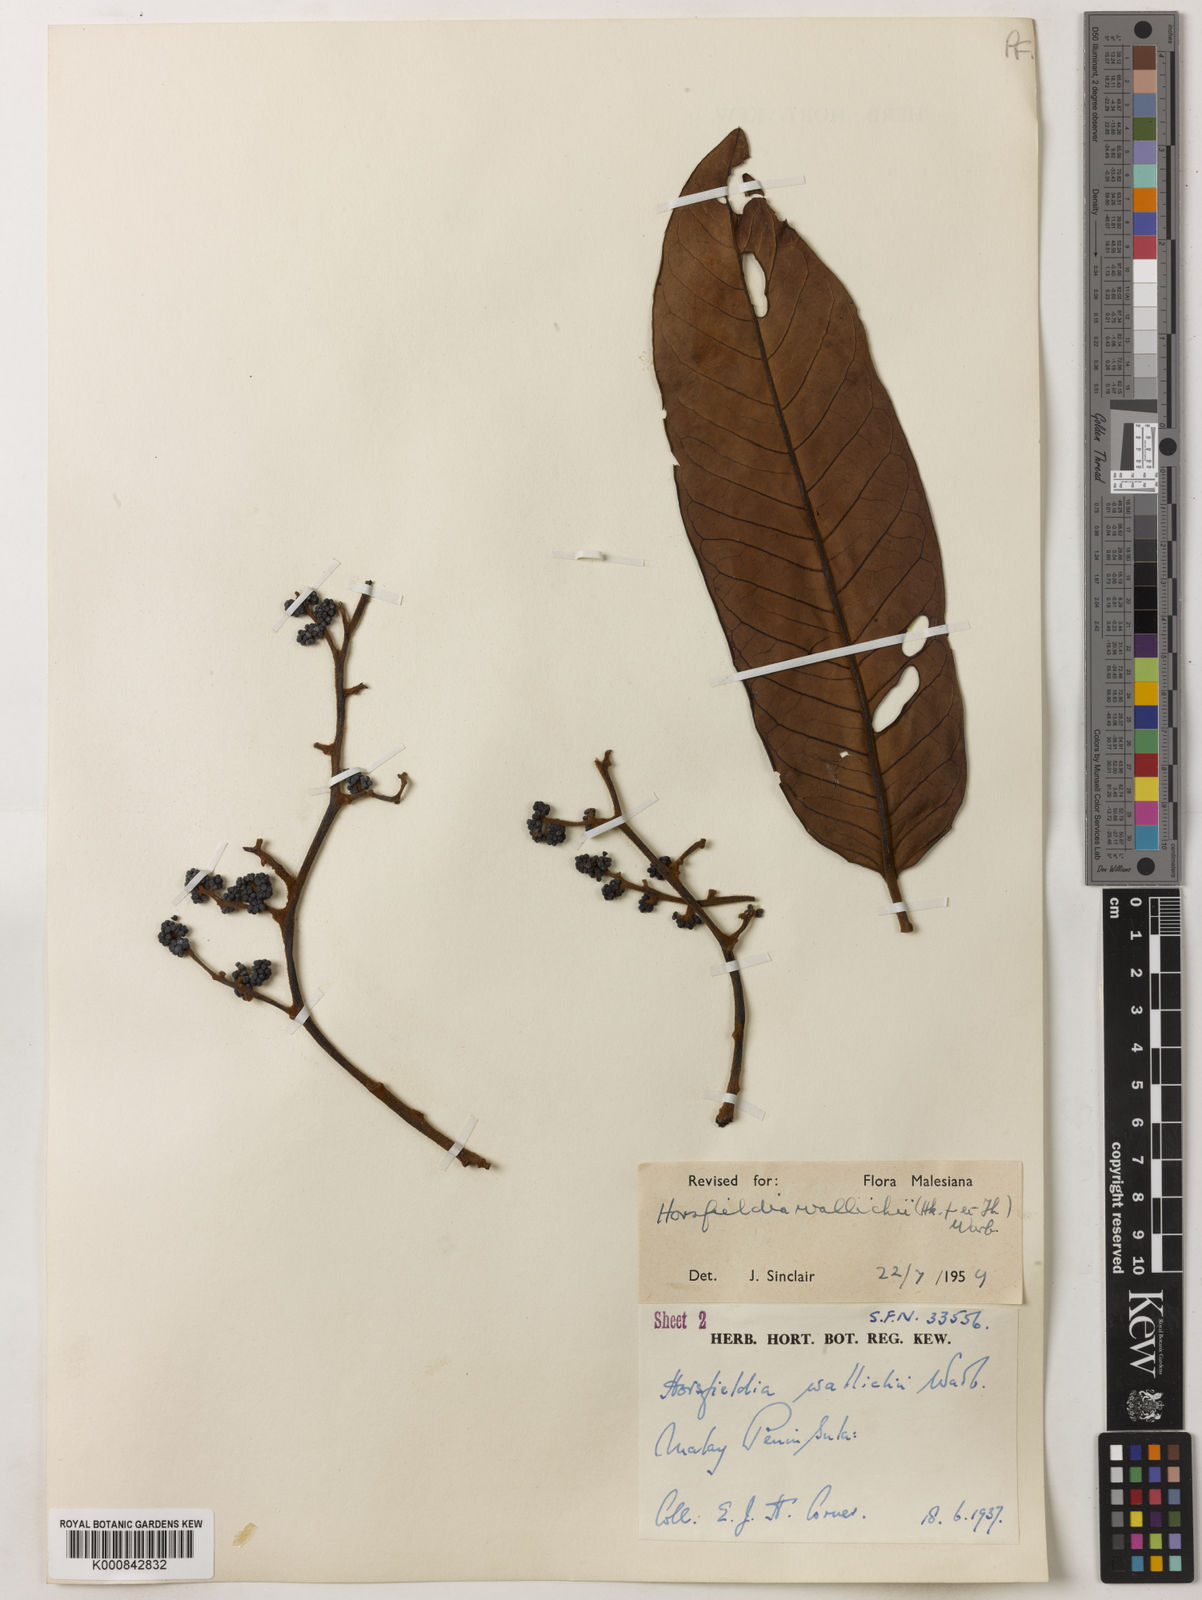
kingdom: Plantae
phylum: Tracheophyta
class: Magnoliopsida
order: Magnoliales
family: Myristicaceae
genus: Horsfieldia
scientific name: Horsfieldia wallichii
